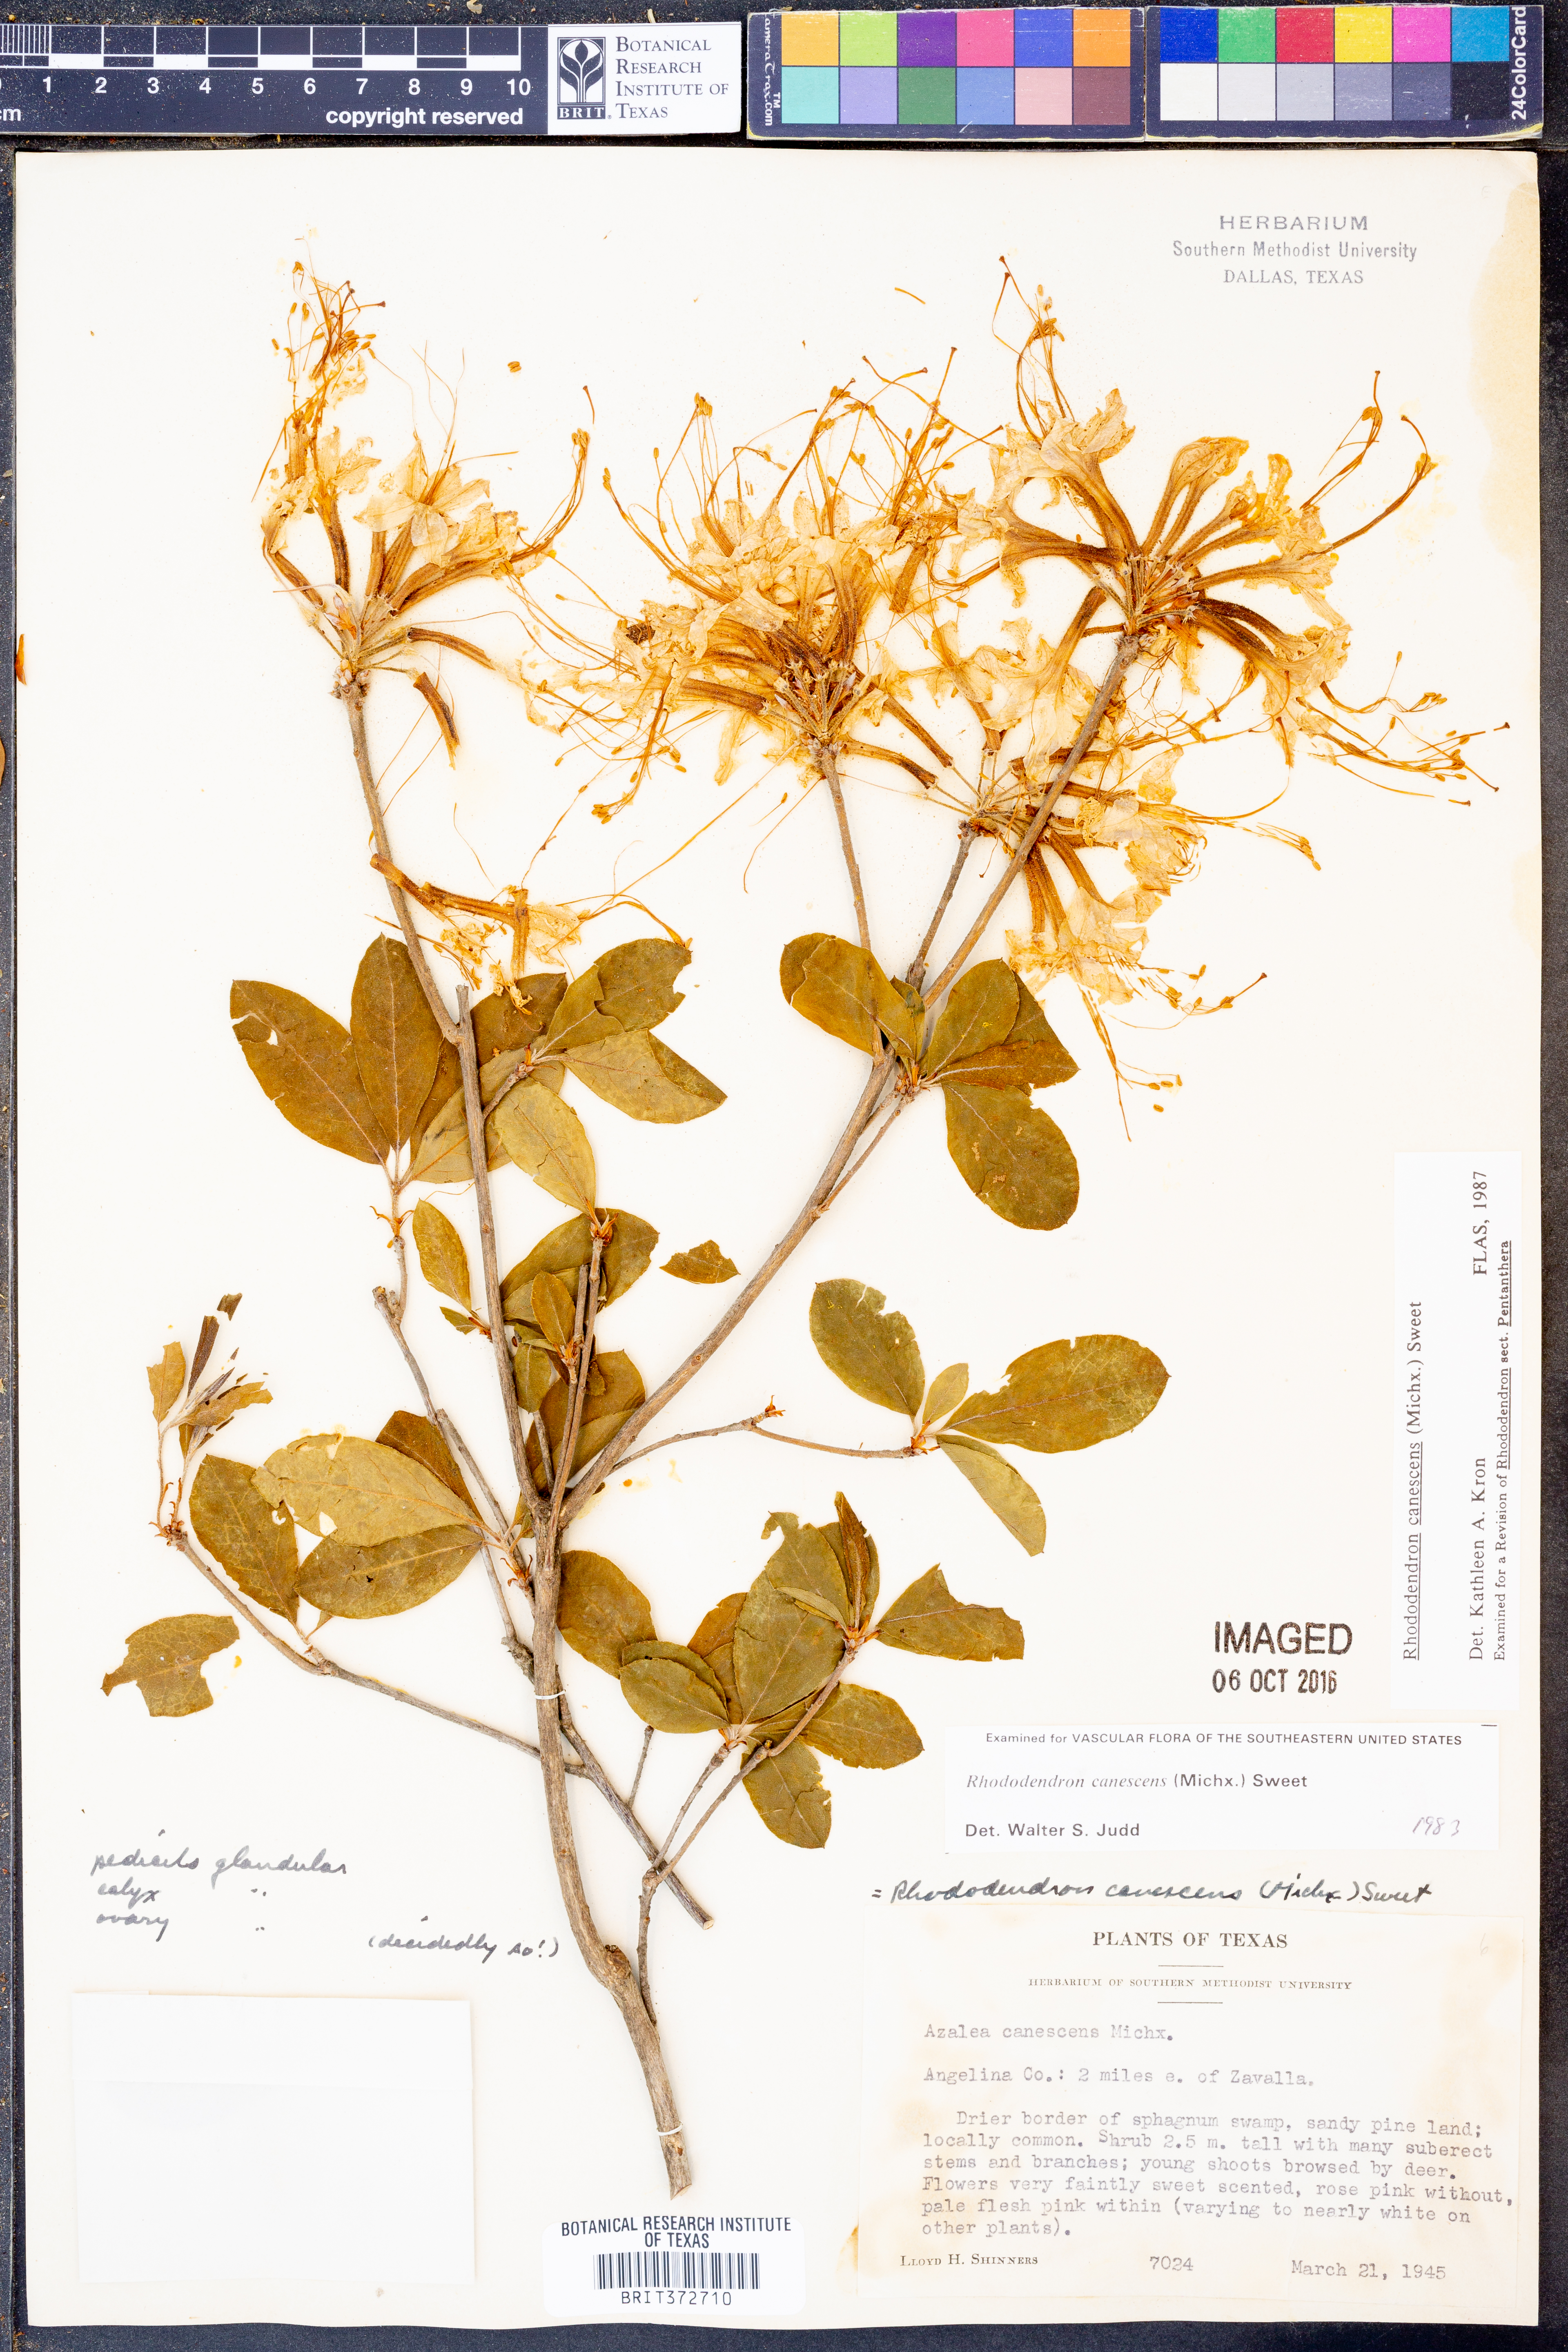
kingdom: Plantae
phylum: Tracheophyta
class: Magnoliopsida
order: Ericales
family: Ericaceae
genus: Rhododendron
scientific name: Rhododendron canescens
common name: Mountain azalea
